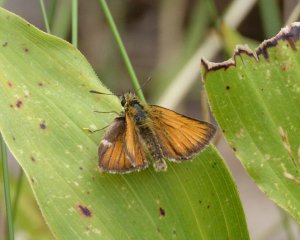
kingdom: Animalia
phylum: Arthropoda
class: Insecta
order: Lepidoptera
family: Hesperiidae
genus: Thymelicus
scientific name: Thymelicus lineola
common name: European Skipper
